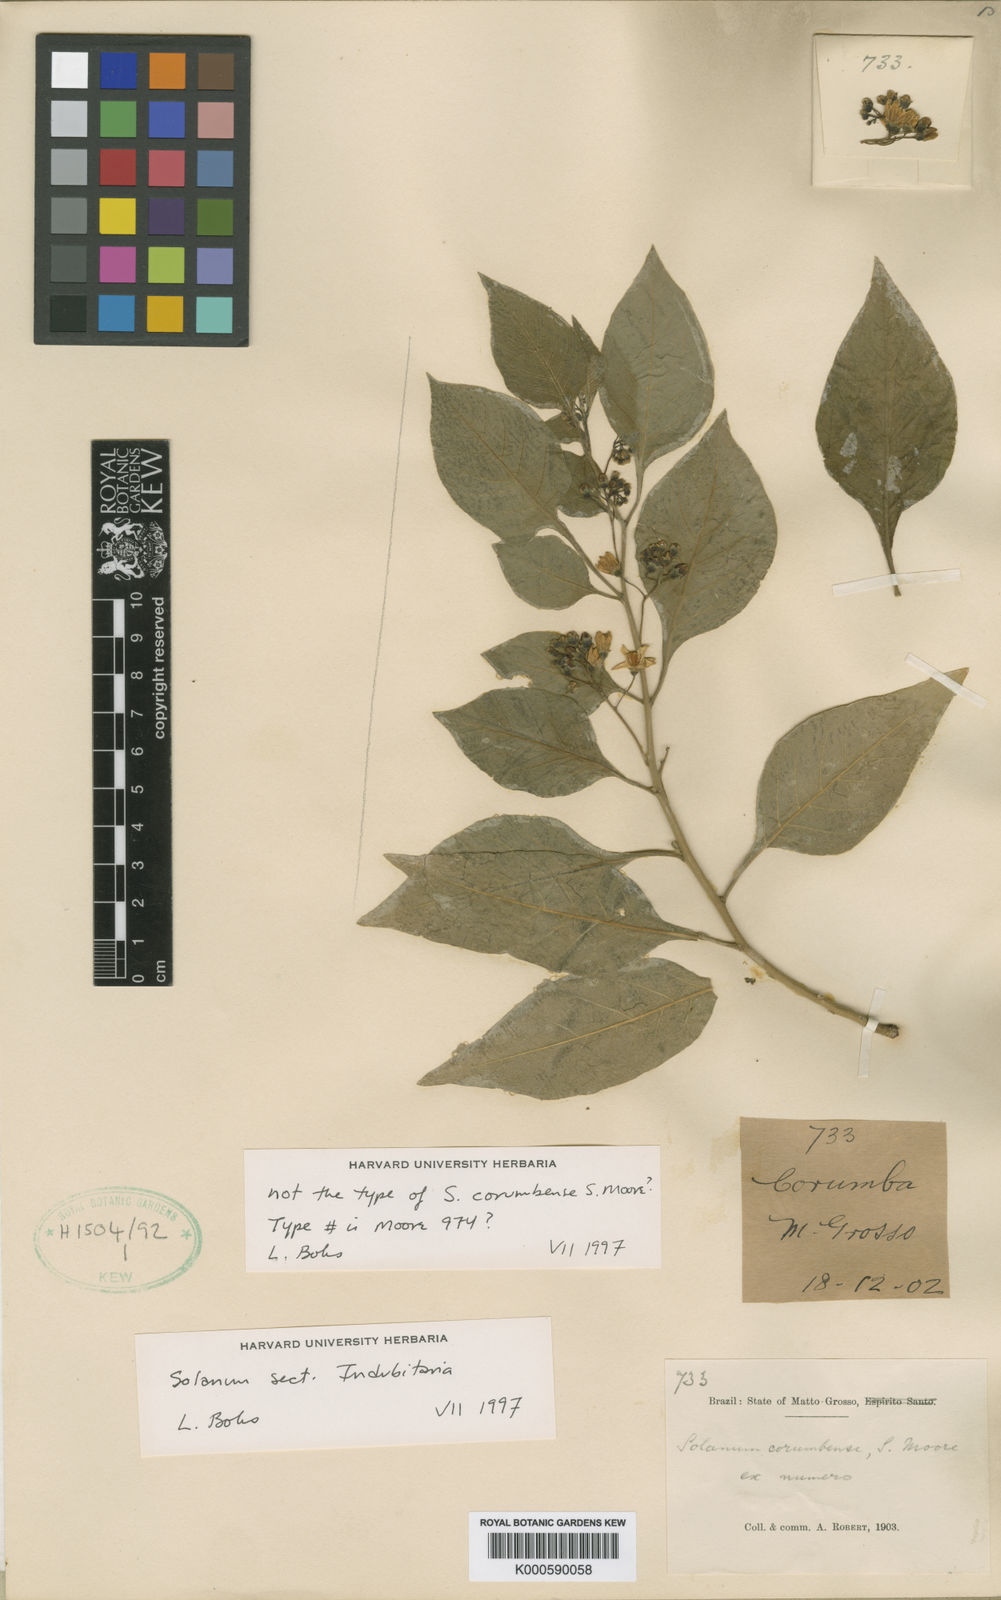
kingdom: Plantae
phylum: Tracheophyta
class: Magnoliopsida
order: Solanales
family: Solanaceae
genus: Solanum
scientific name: Solanum corumbense
